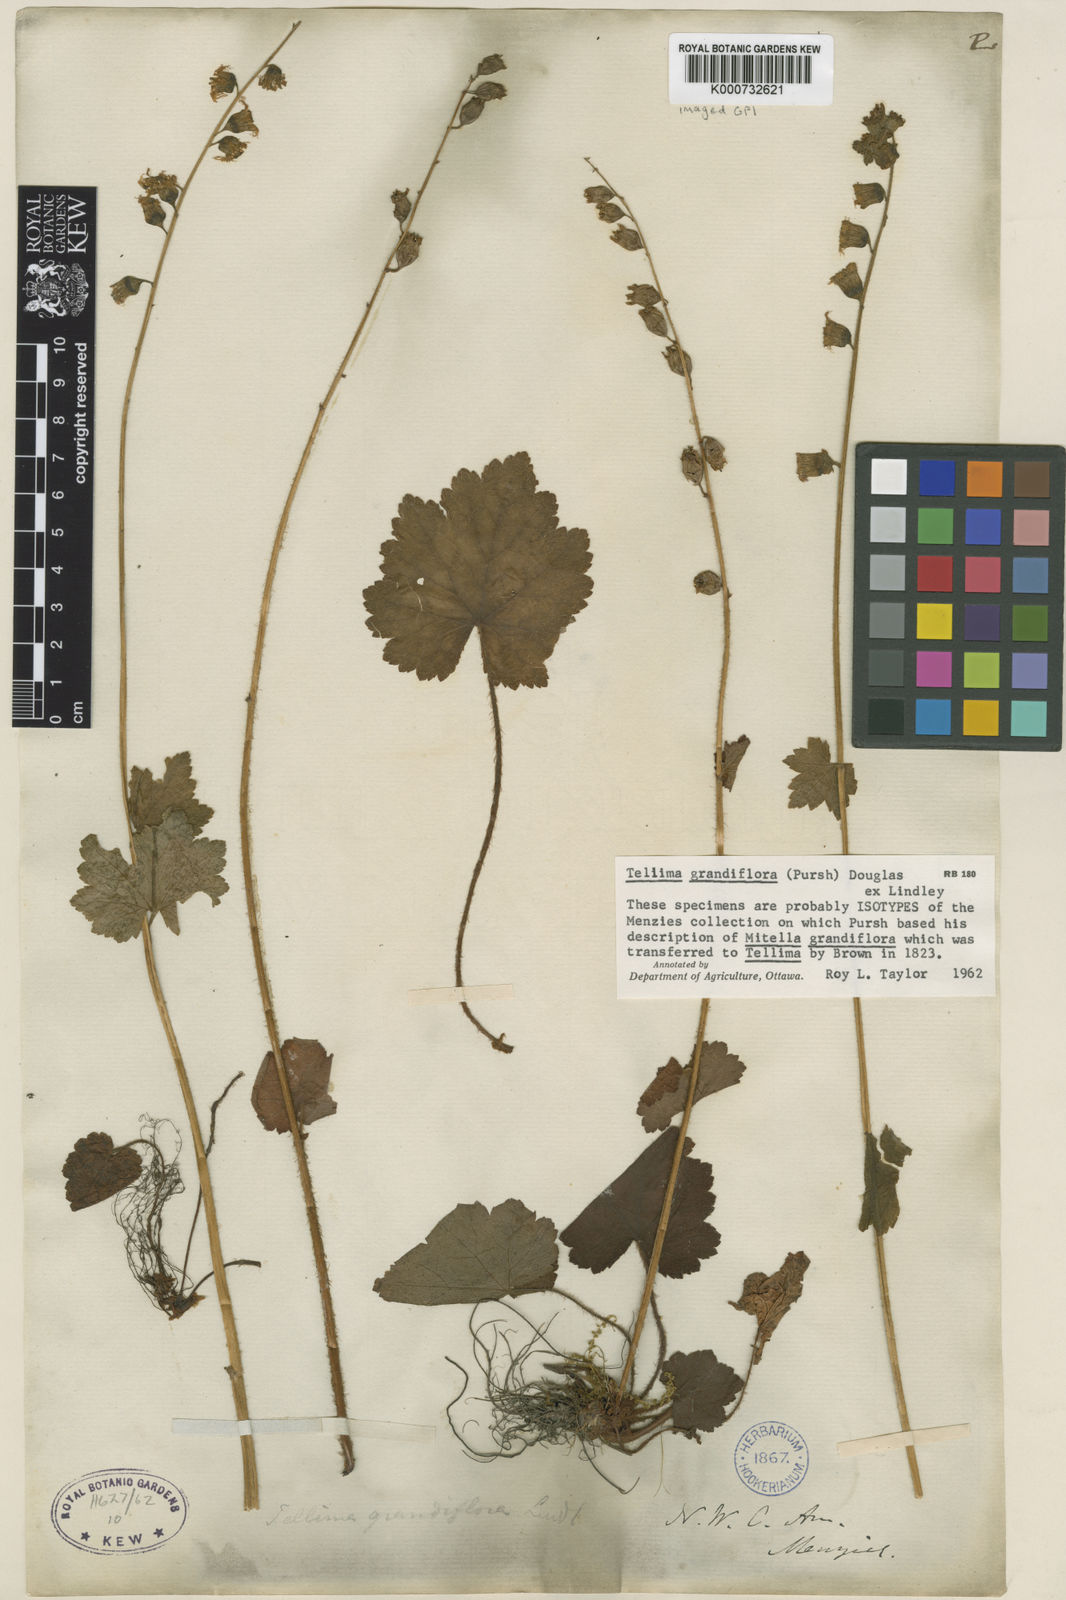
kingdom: Plantae
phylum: Tracheophyta
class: Magnoliopsida
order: Saxifragales
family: Saxifragaceae
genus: Tellima
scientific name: Tellima grandiflora
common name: Fringecups
